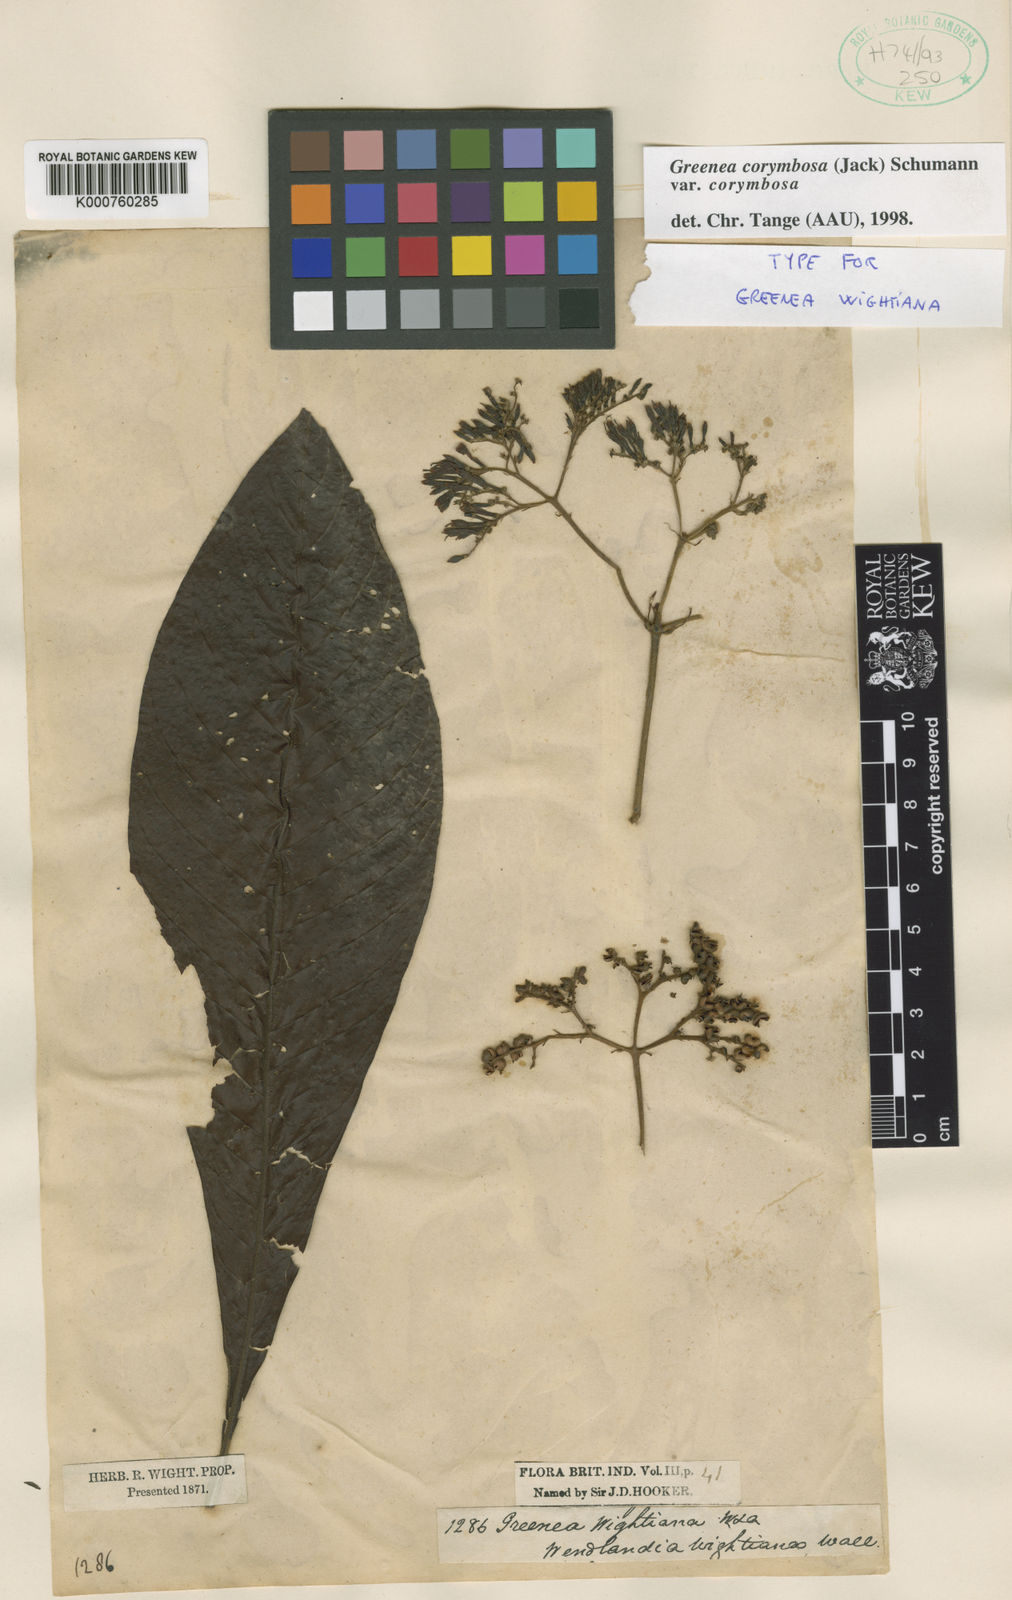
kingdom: Plantae
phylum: Tracheophyta
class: Magnoliopsida
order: Gentianales
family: Rubiaceae
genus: Greenea
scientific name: Greenea corymbosa
